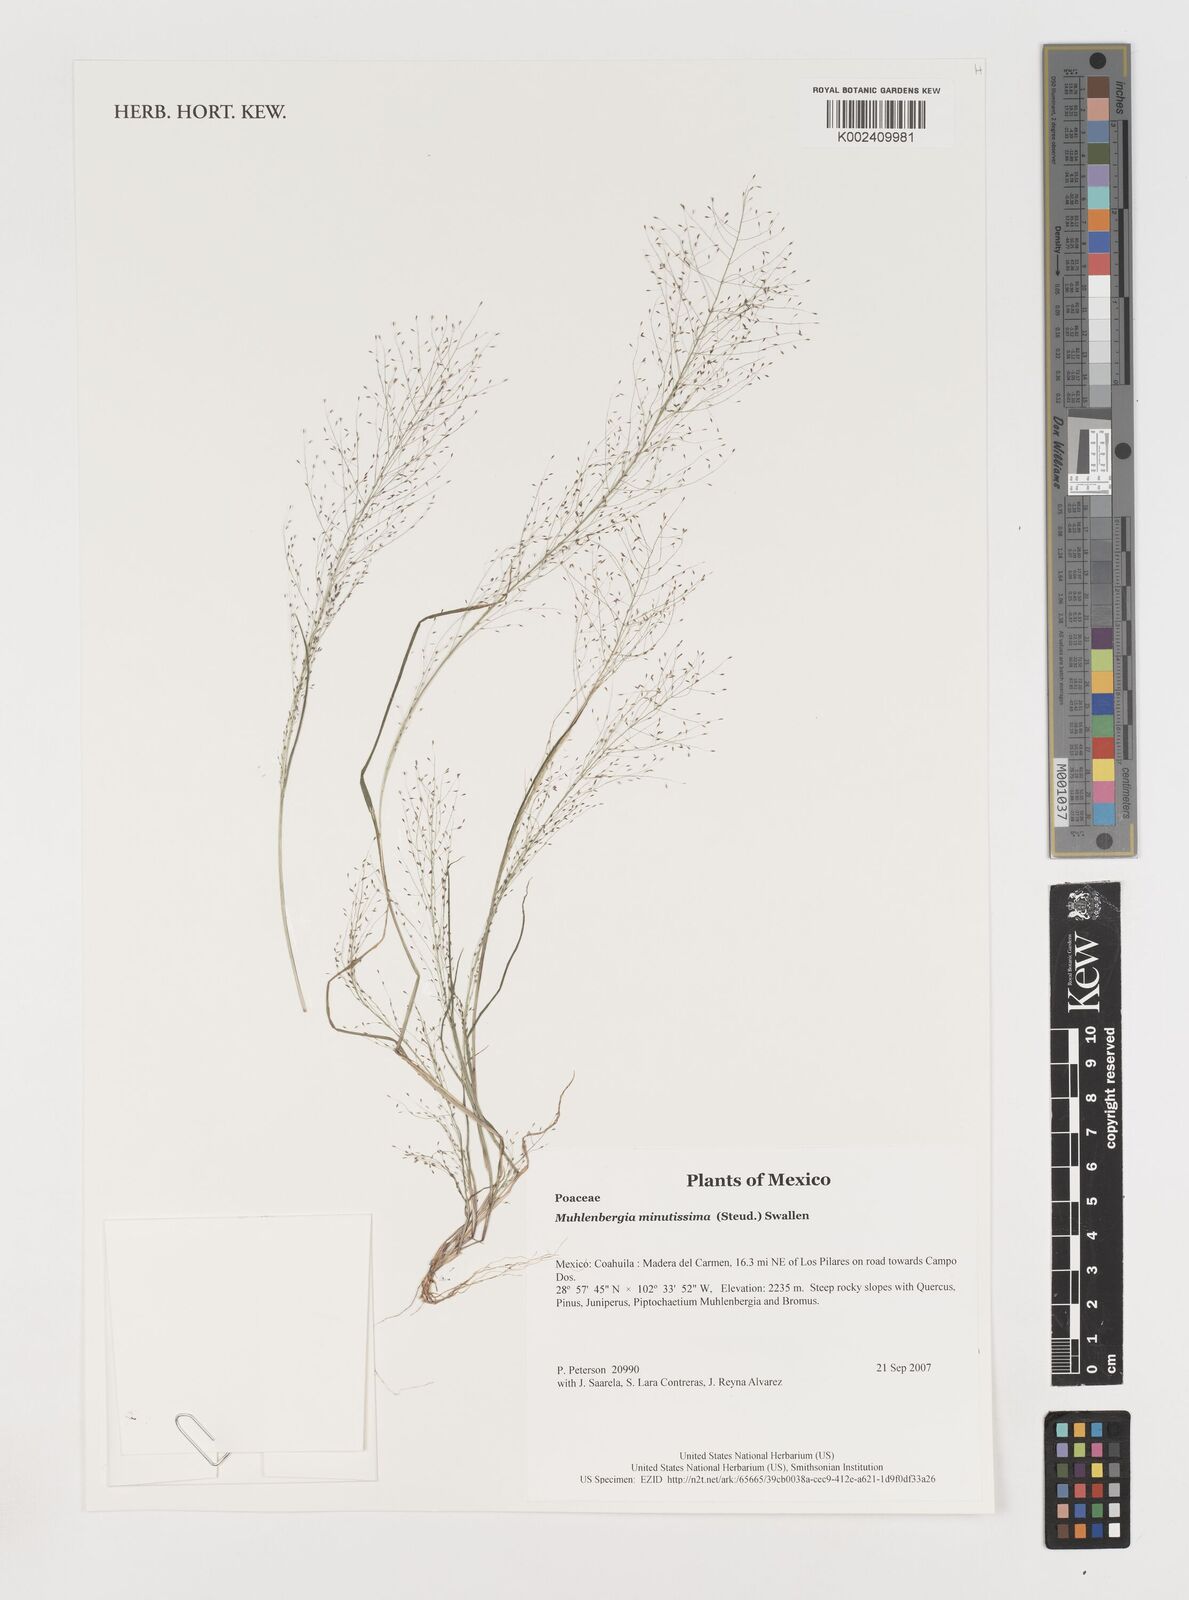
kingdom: Plantae
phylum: Tracheophyta
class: Liliopsida
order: Poales
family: Poaceae
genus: Muhlenbergia
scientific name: Muhlenbergia minutissima
